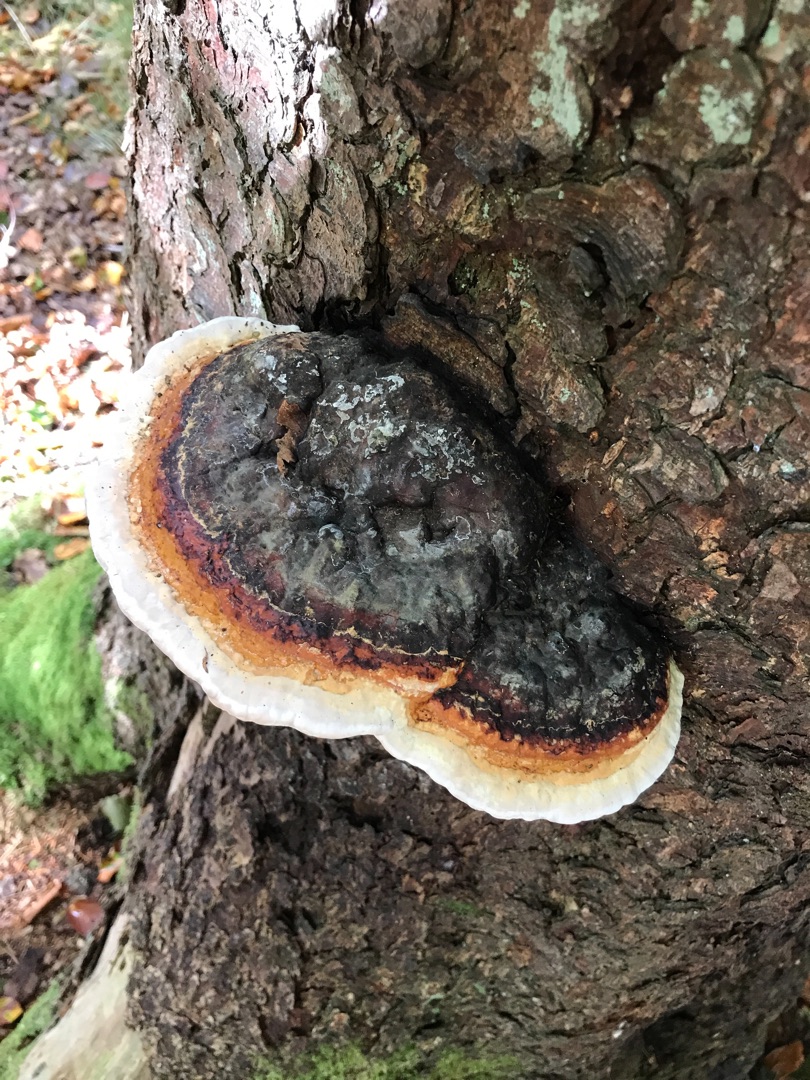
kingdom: Fungi
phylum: Basidiomycota
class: Agaricomycetes
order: Polyporales
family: Fomitopsidaceae
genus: Fomitopsis
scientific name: Fomitopsis pinicola
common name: Randbæltet hovporesvamp
